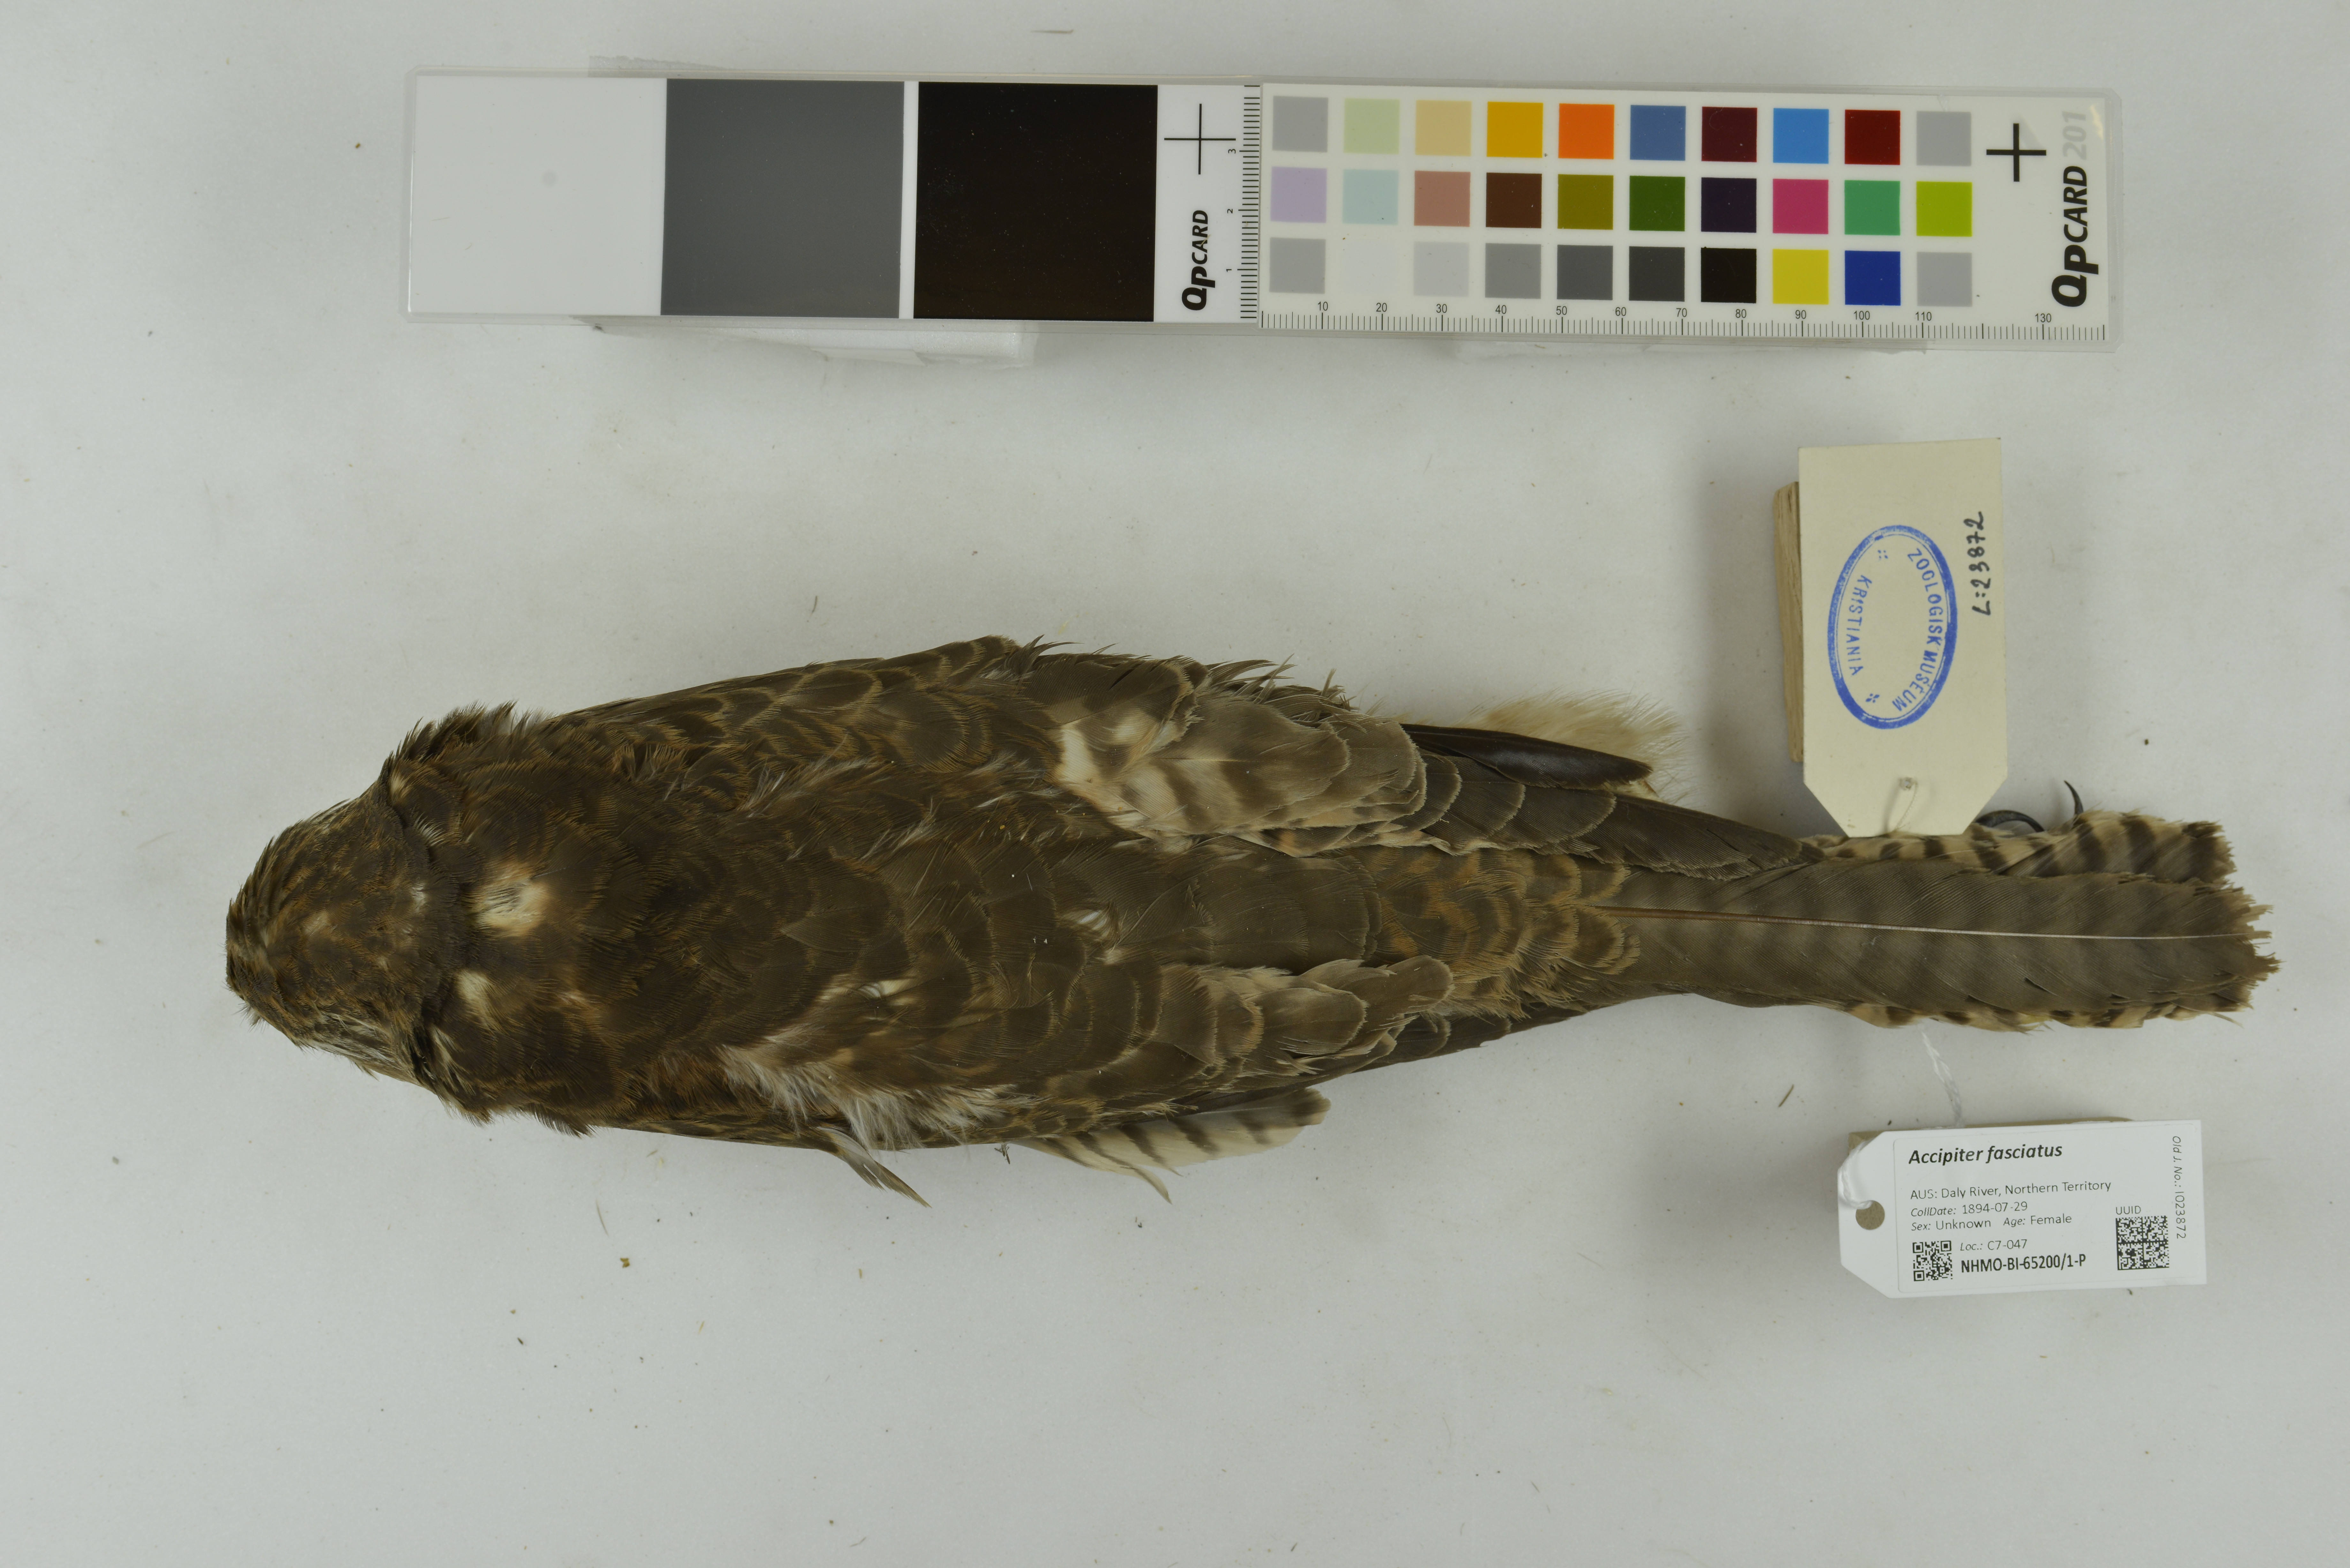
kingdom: Animalia
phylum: Chordata
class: Aves
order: Accipitriformes
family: Accipitridae
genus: Accipiter
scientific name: Accipiter fasciatus
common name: Brown goshawk
